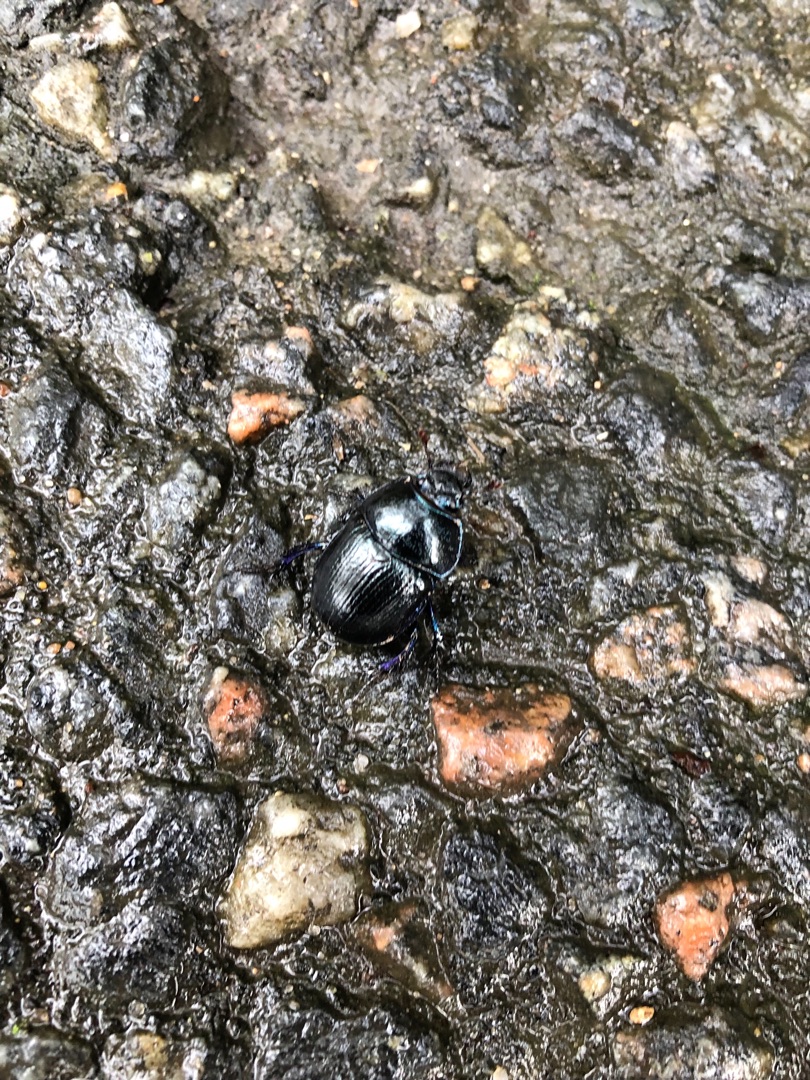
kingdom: Animalia
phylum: Arthropoda
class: Insecta
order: Coleoptera
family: Geotrupidae
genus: Anoplotrupes
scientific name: Anoplotrupes stercorosus
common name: Skovskarnbasse
